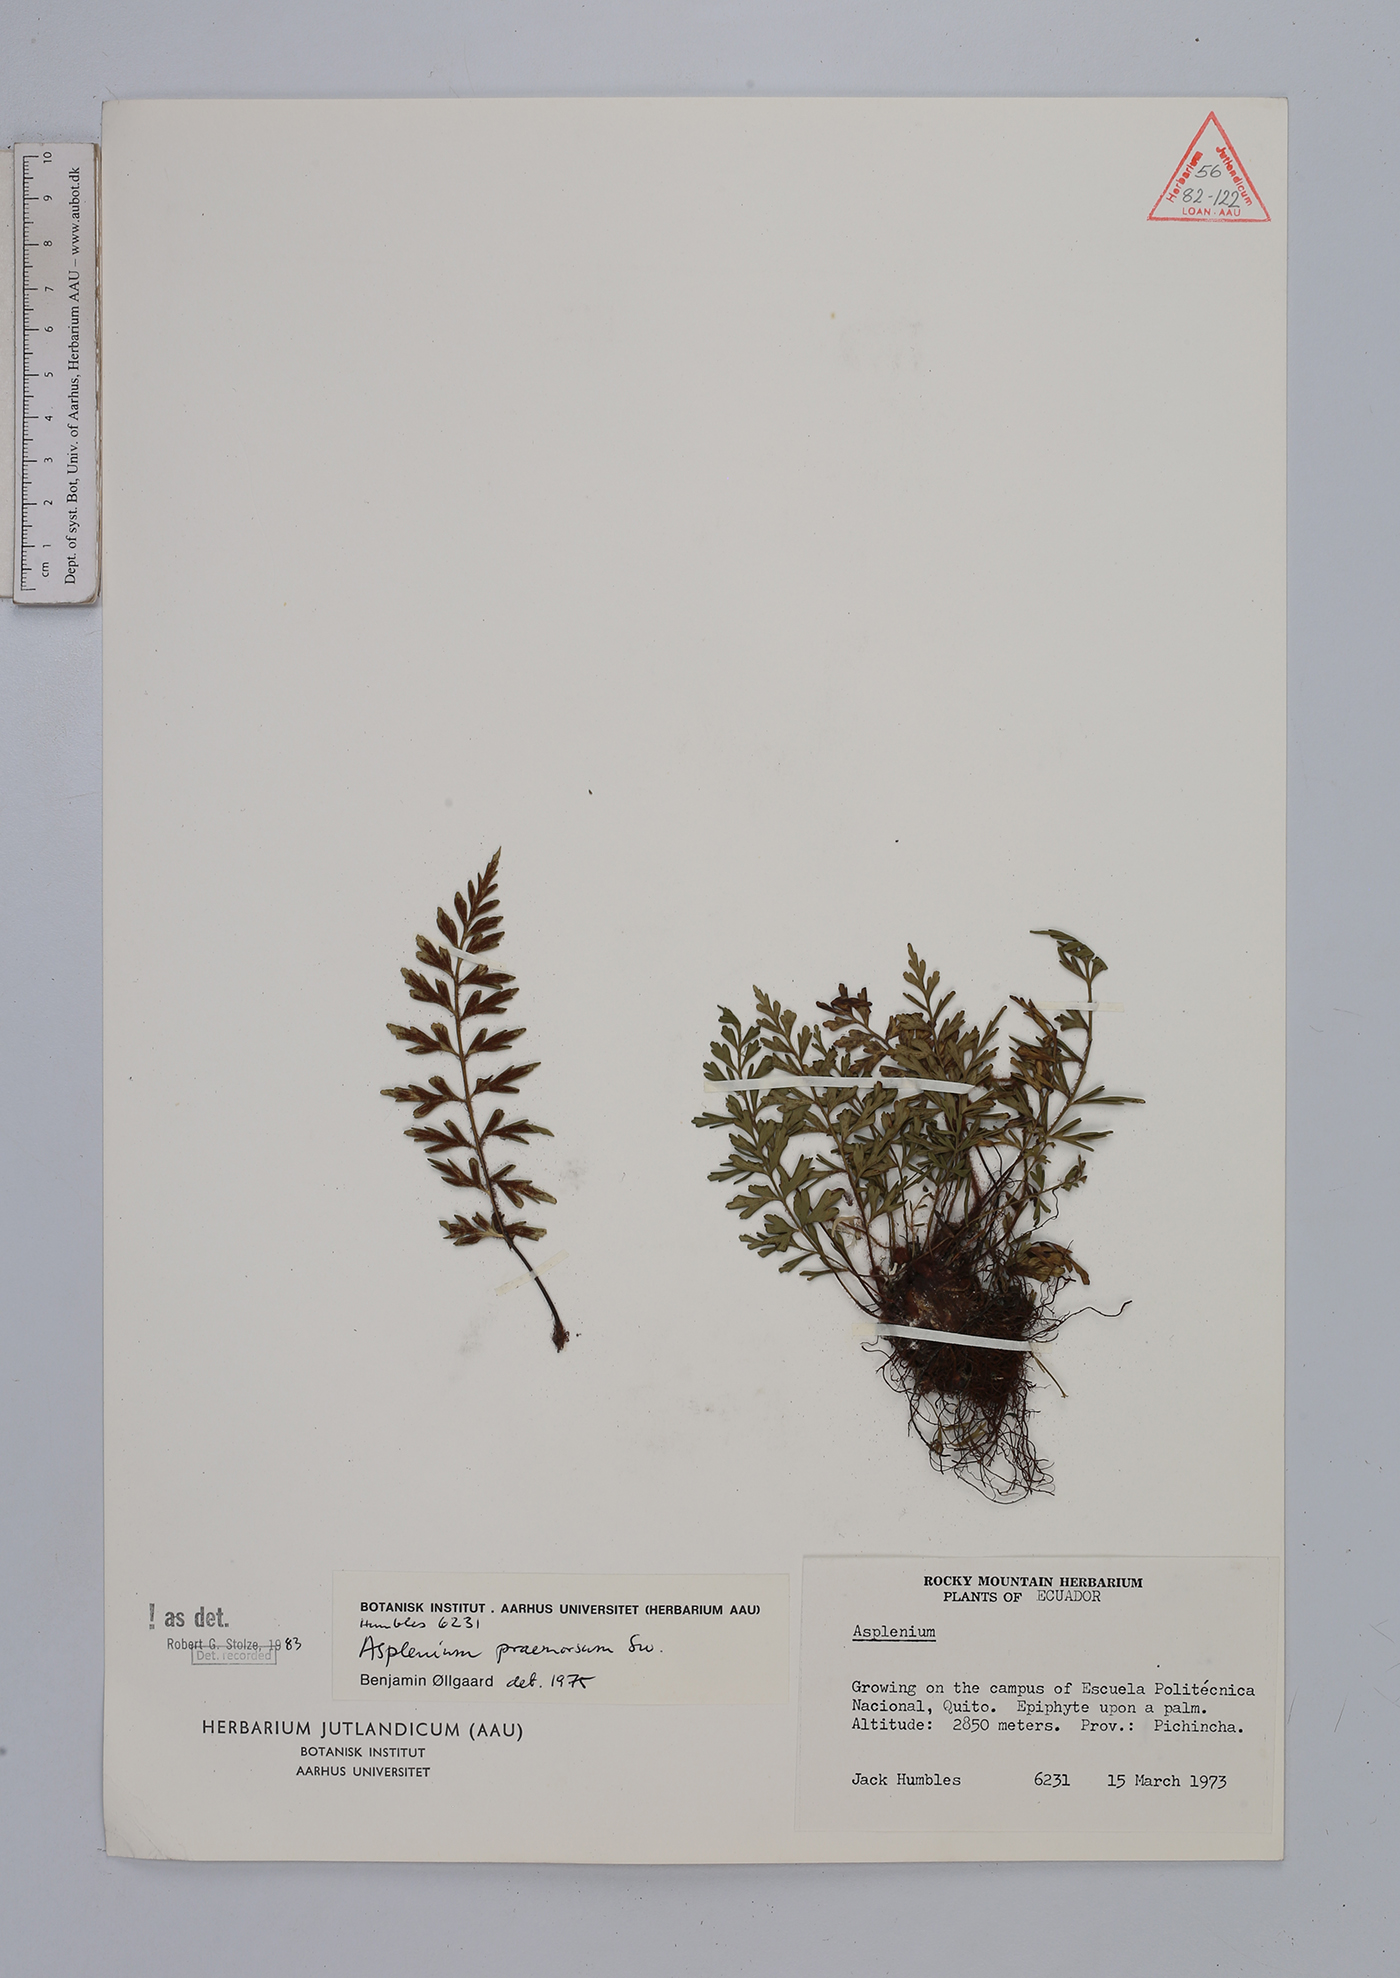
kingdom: Plantae
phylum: Tracheophyta
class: Polypodiopsida
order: Polypodiales
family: Aspleniaceae
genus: Asplenium
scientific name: Asplenium praemorsum
